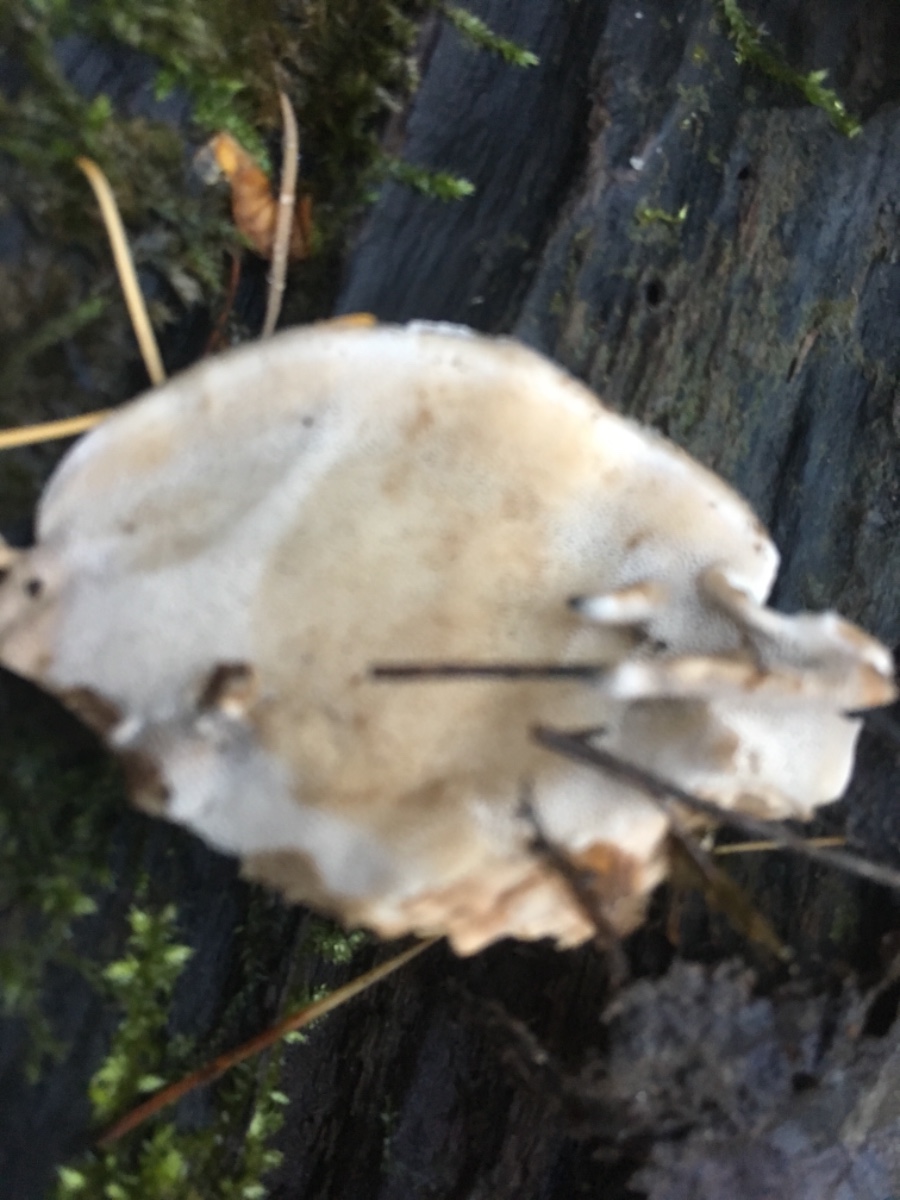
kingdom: Fungi
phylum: Basidiomycota
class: Agaricomycetes
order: Polyporales
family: Phanerochaetaceae
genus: Bjerkandera
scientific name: Bjerkandera fumosa
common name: grågul sodporesvamp
